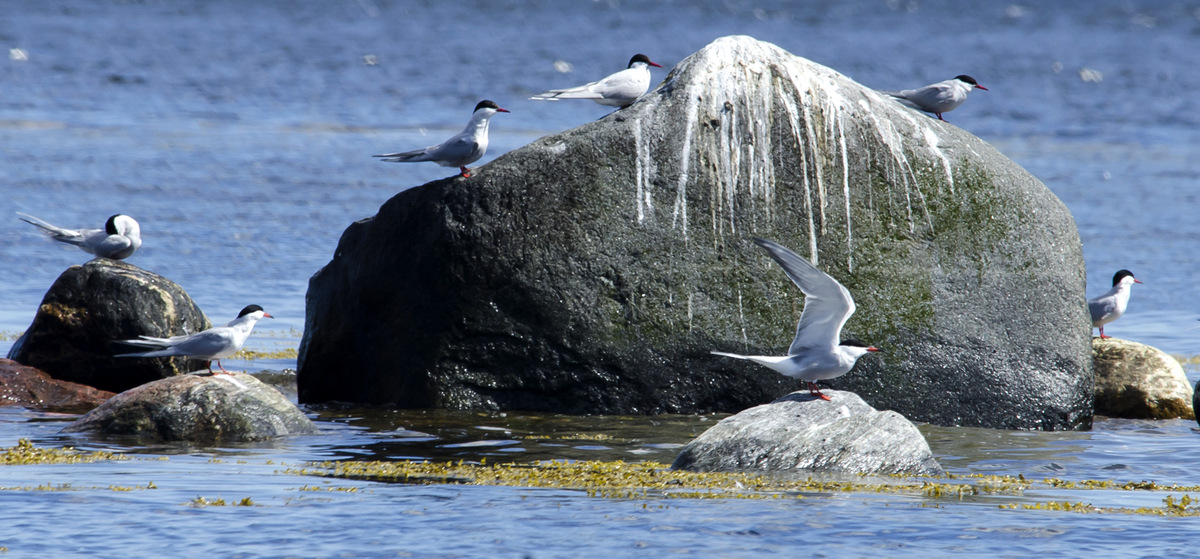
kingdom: Animalia
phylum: Chordata
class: Aves
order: Charadriiformes
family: Laridae
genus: Sterna
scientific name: Sterna paradisaea
